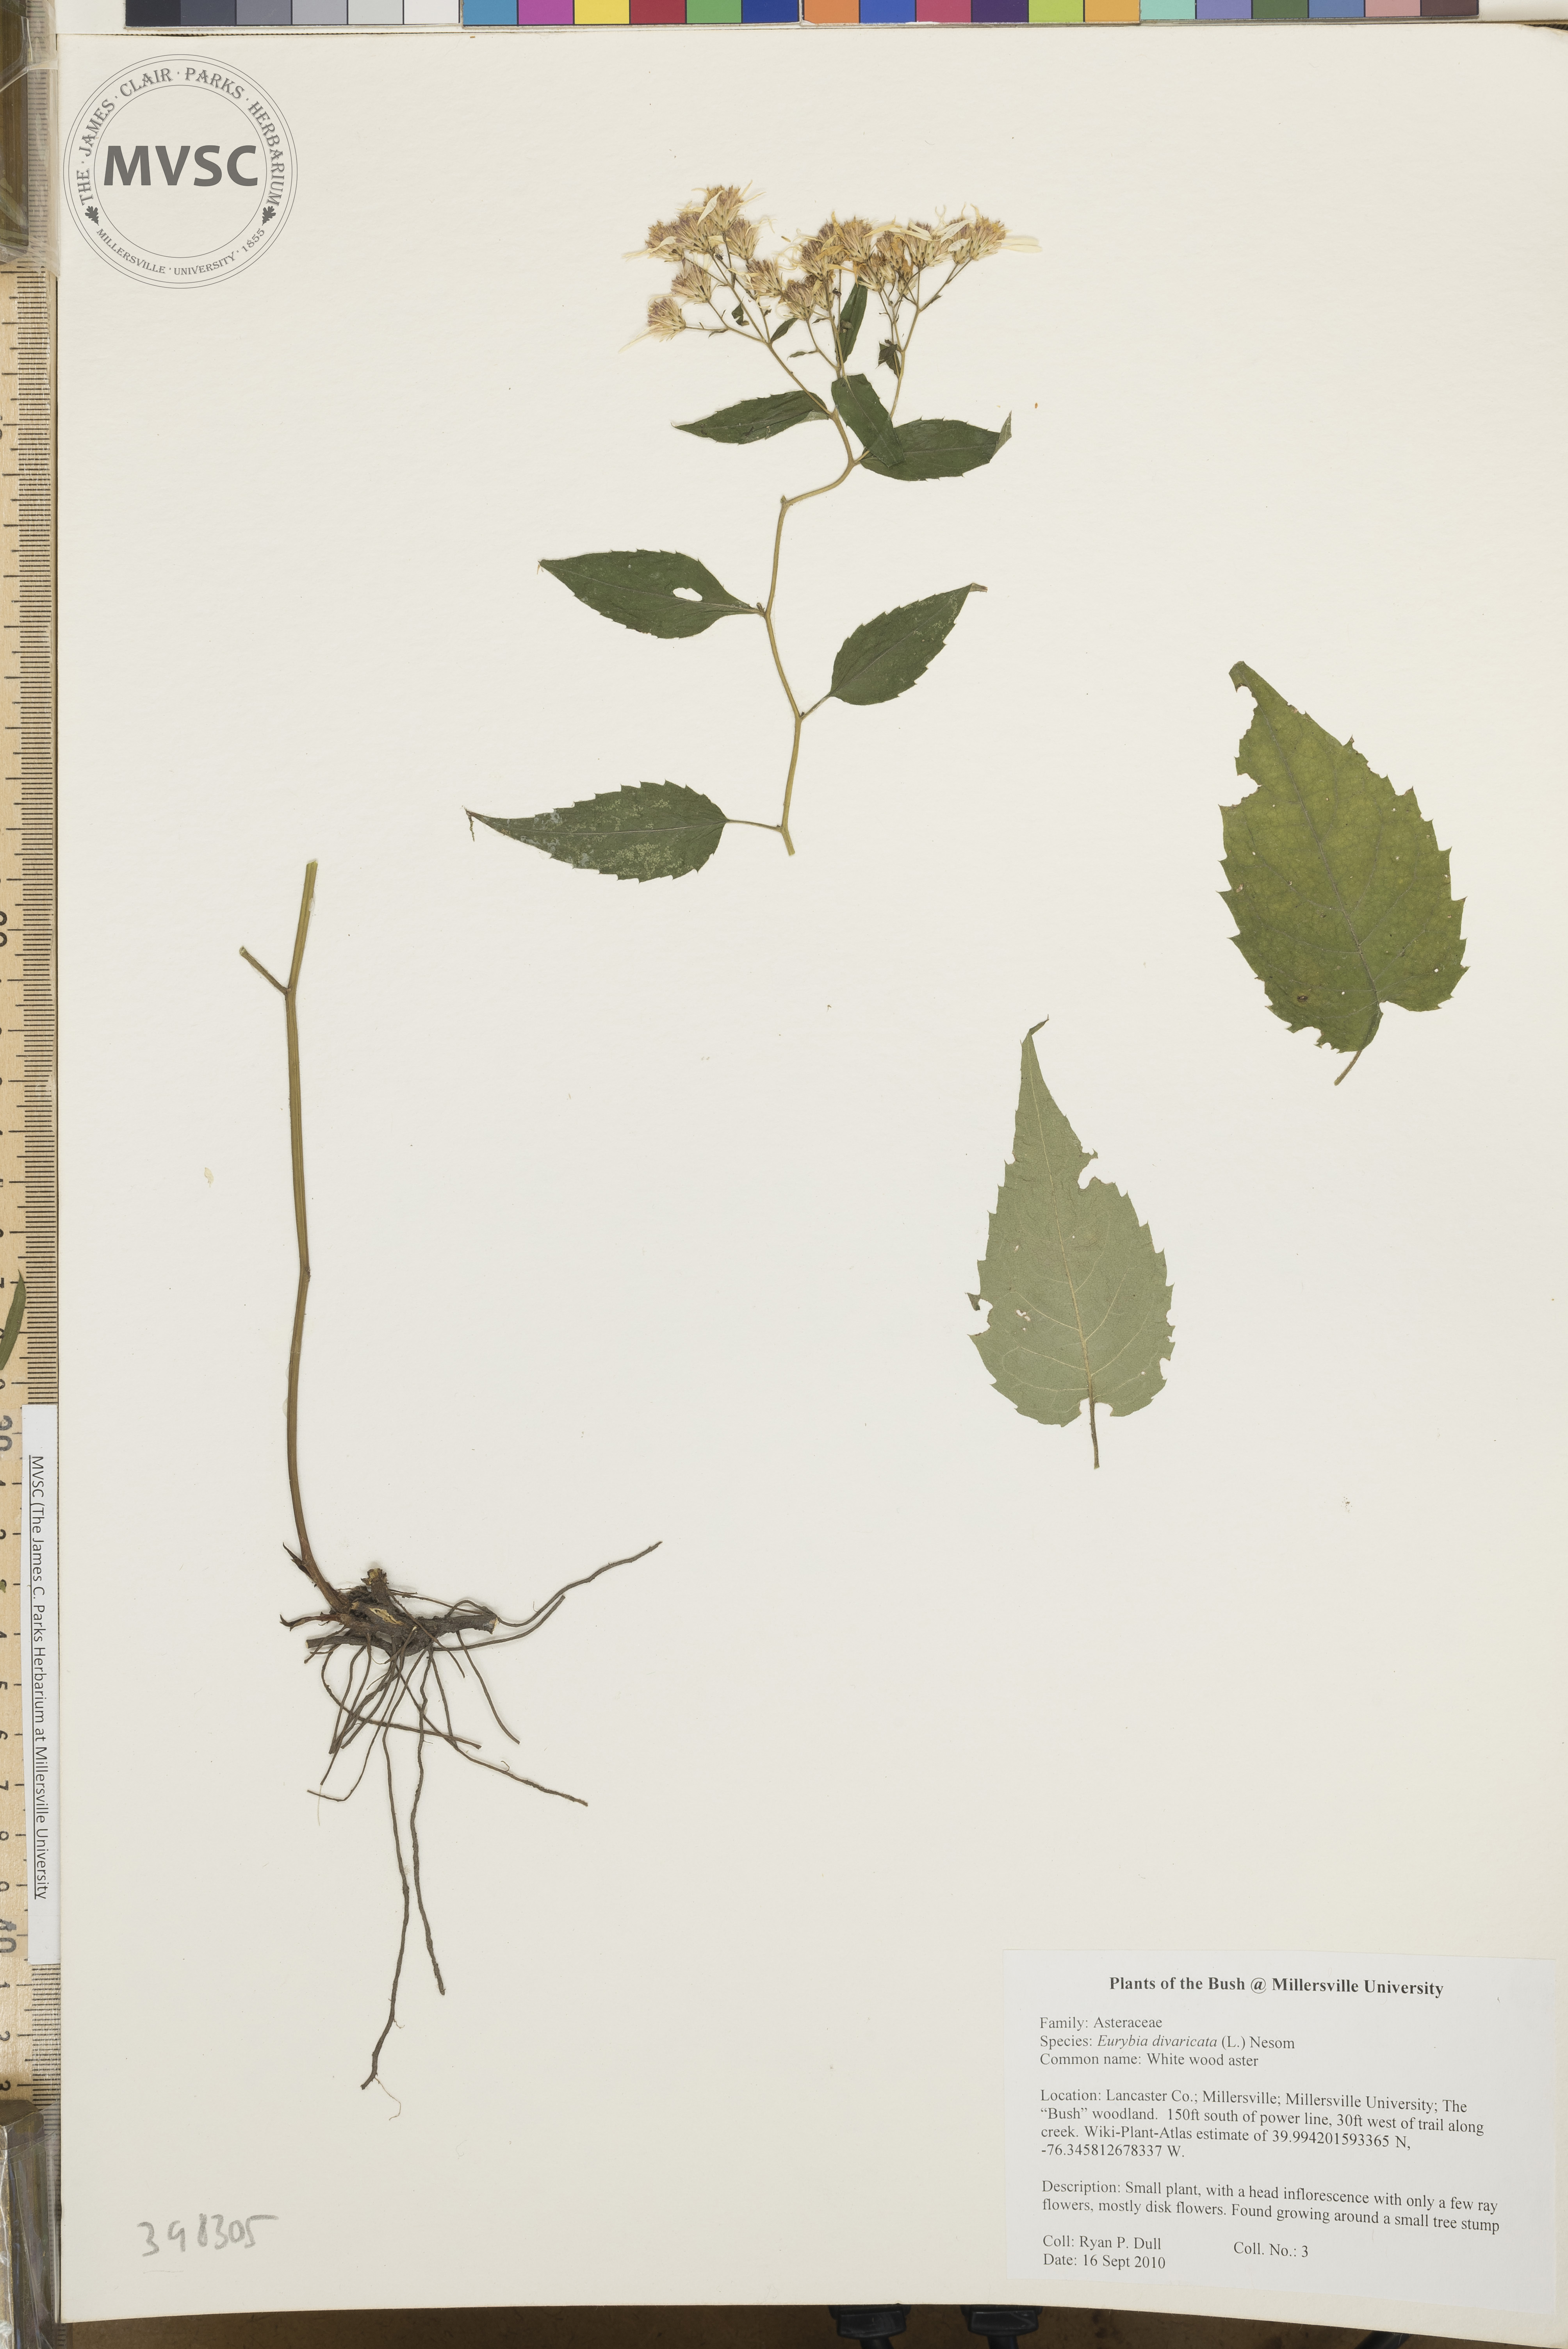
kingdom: Plantae
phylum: Tracheophyta
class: Magnoliopsida
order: Asterales
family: Asteraceae
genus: Eurybia
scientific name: Eurybia divaricata
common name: White wood aster
